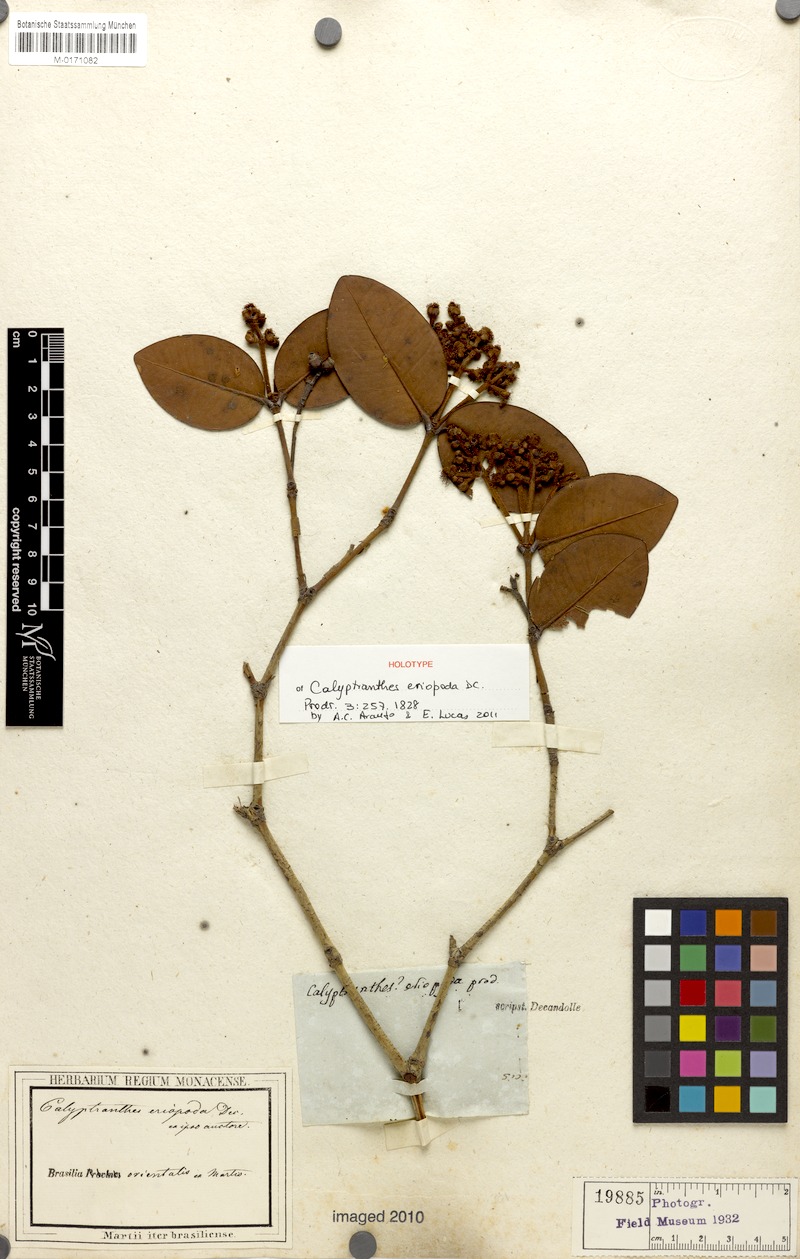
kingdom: Plantae
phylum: Tracheophyta
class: Magnoliopsida
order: Myrtales
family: Myrtaceae
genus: Calyptranthes
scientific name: Calyptranthes eriopoda
